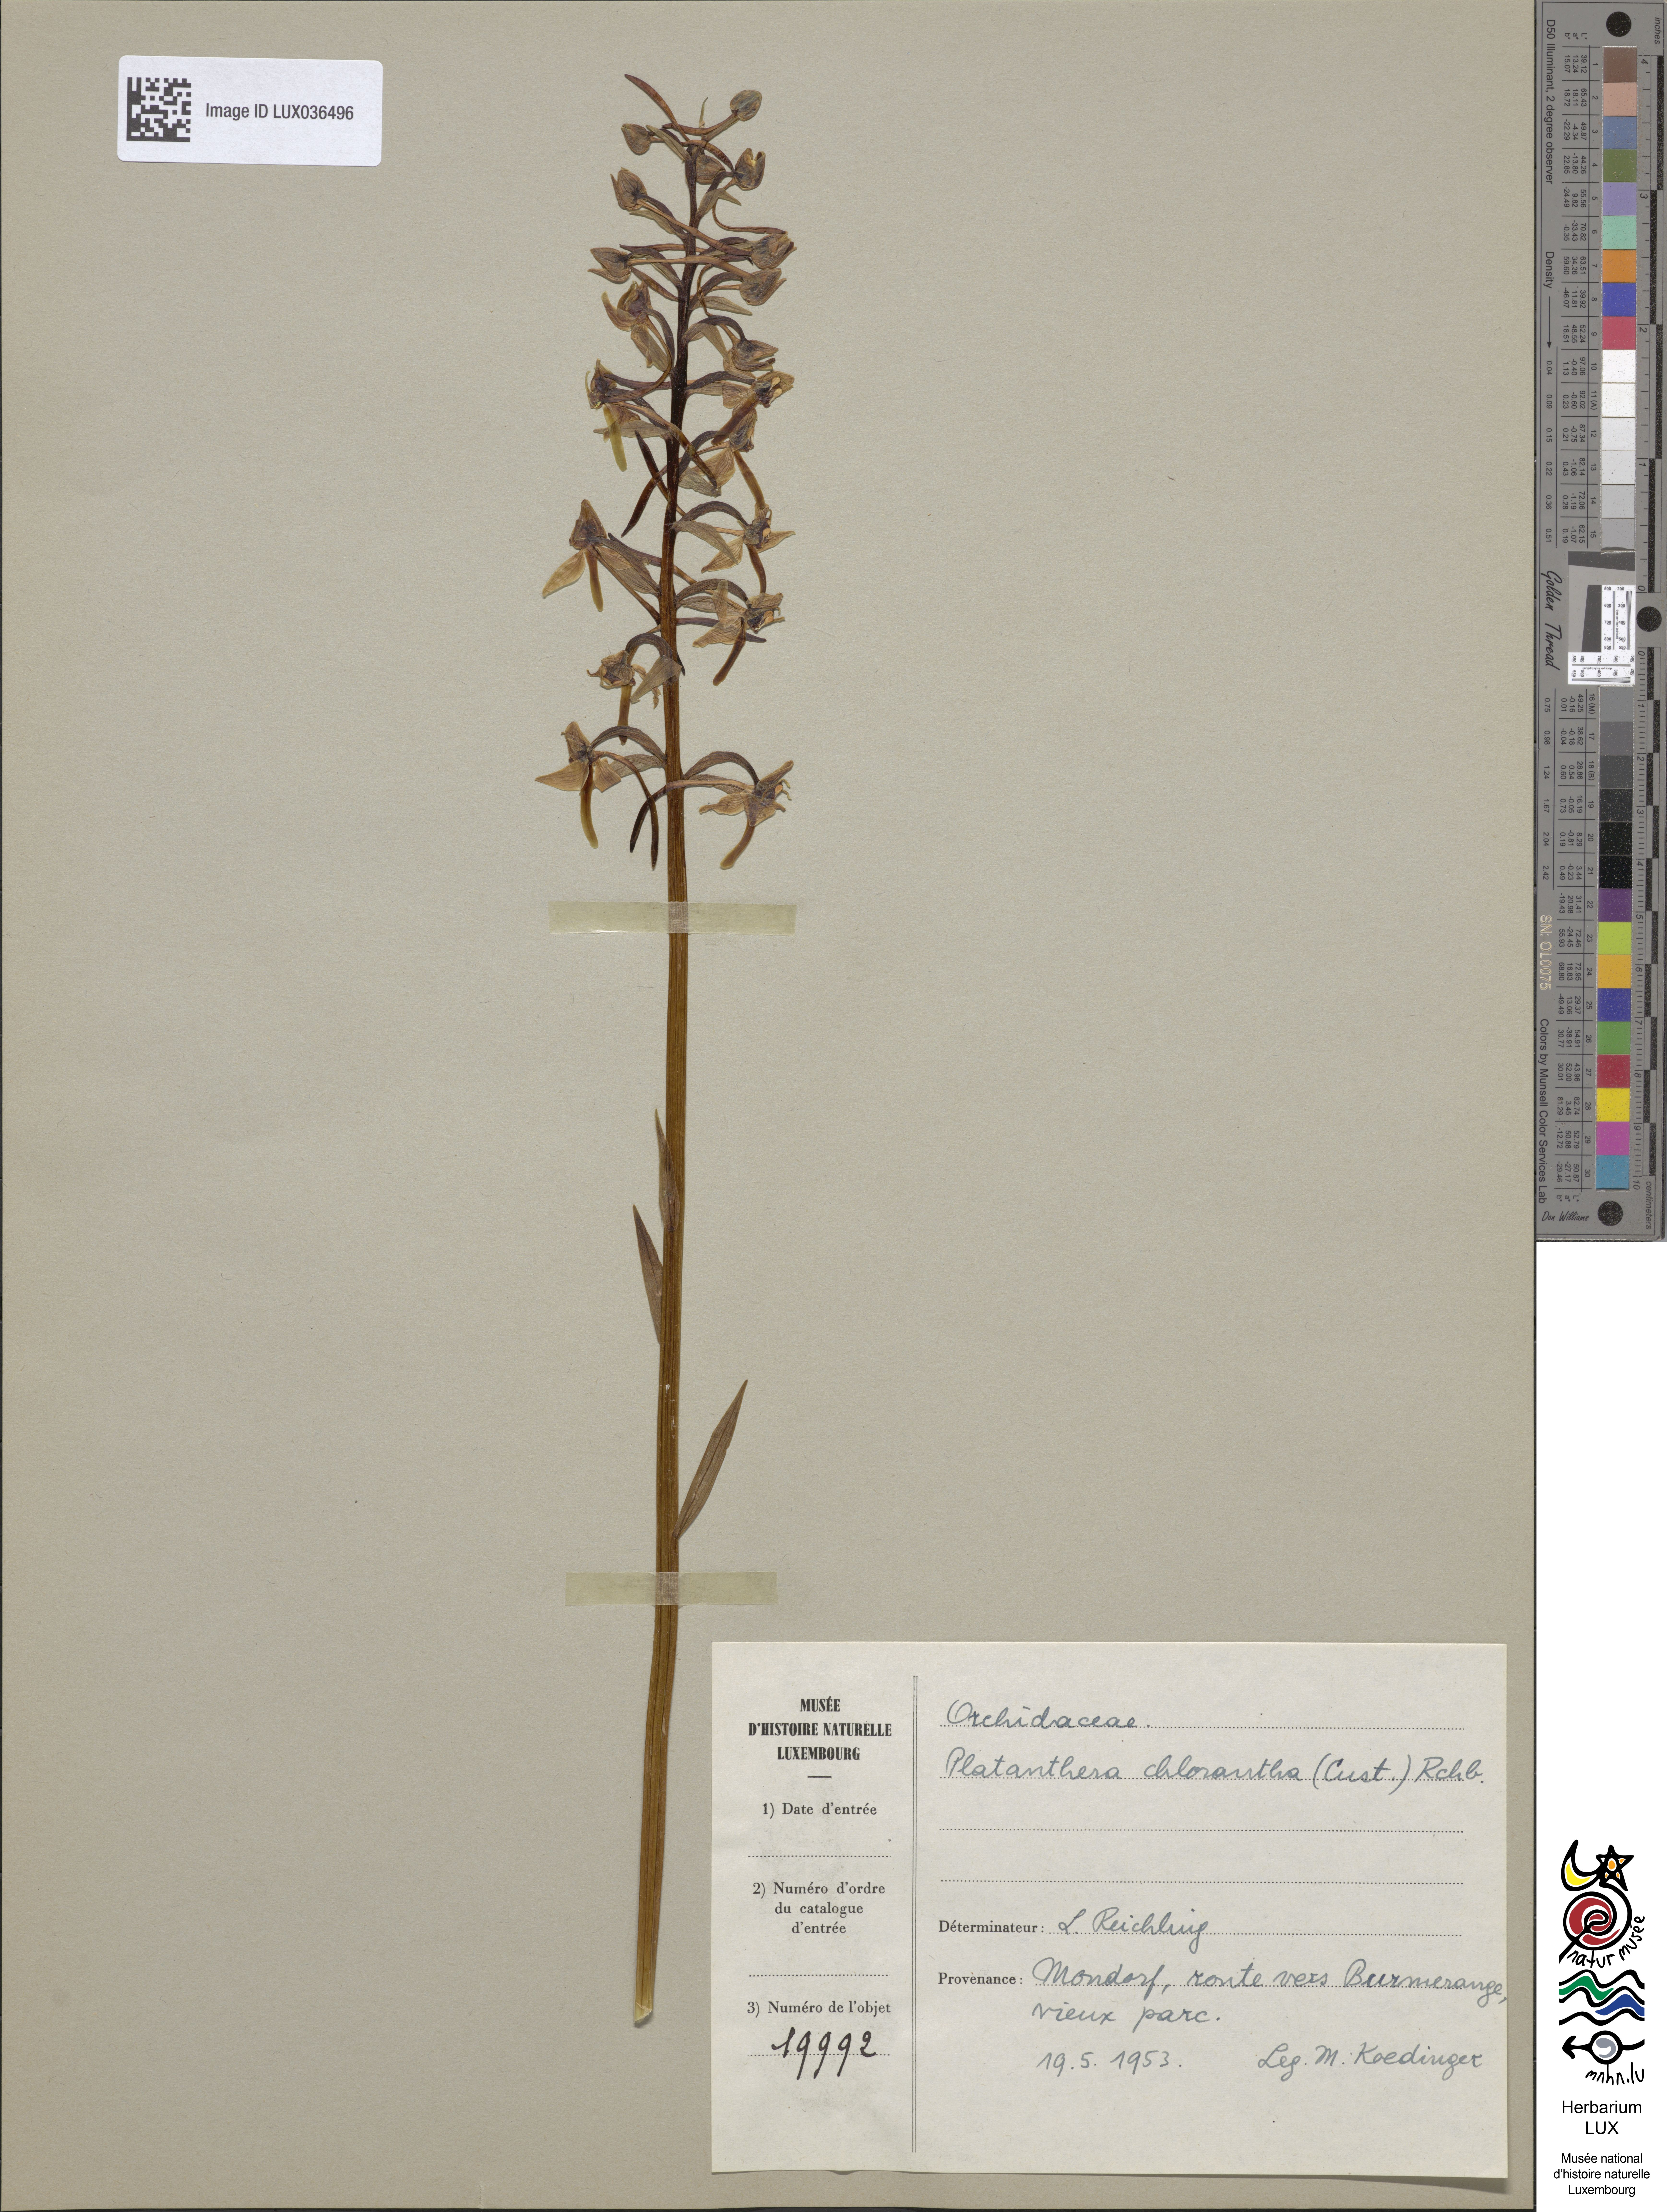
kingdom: Plantae
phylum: Tracheophyta
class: Liliopsida
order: Asparagales
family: Orchidaceae
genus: Platanthera
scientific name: Platanthera chlorantha
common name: Greater butterfly-orchid
